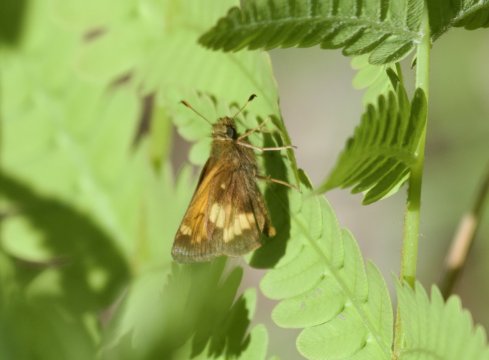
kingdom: Animalia
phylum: Arthropoda
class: Insecta
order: Lepidoptera
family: Hesperiidae
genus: Lon
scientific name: Lon hobomok
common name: Hobomok Skipper
